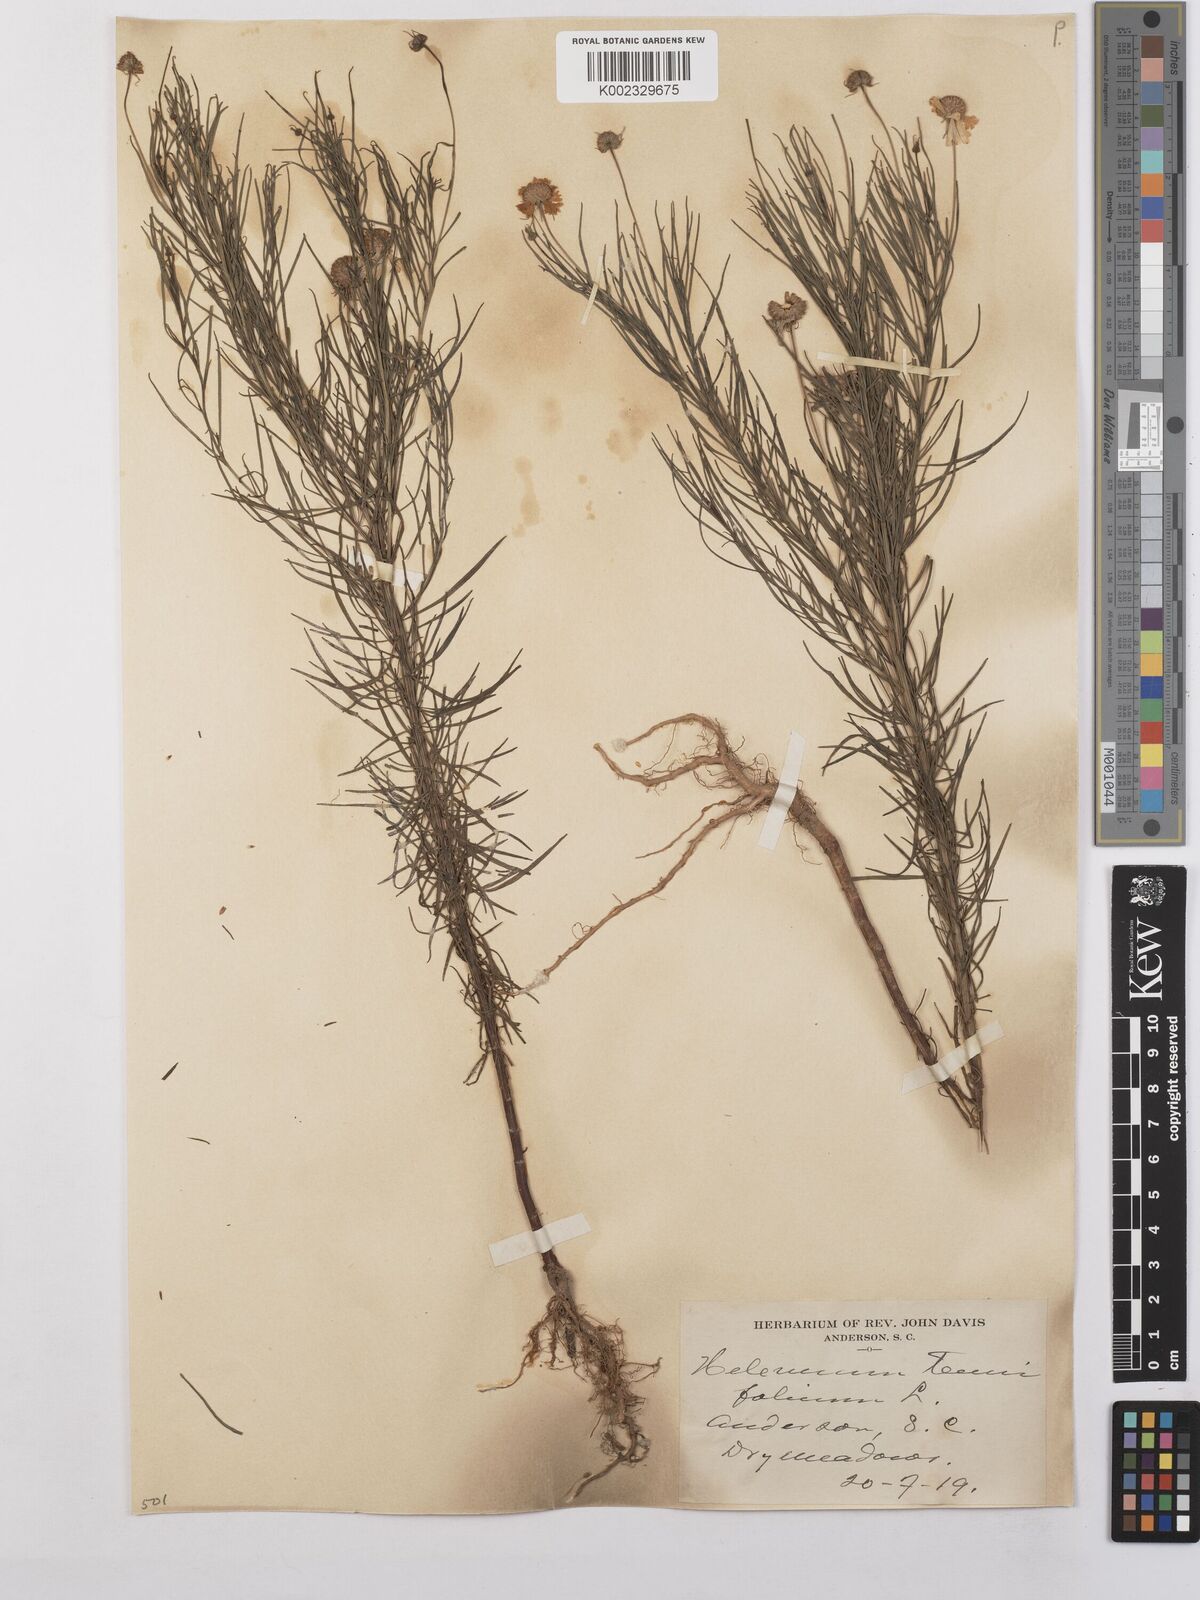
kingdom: Plantae
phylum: Tracheophyta
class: Magnoliopsida
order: Asterales
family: Asteraceae
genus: Helenium
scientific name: Helenium amarum
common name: Bitter sneezeweed
